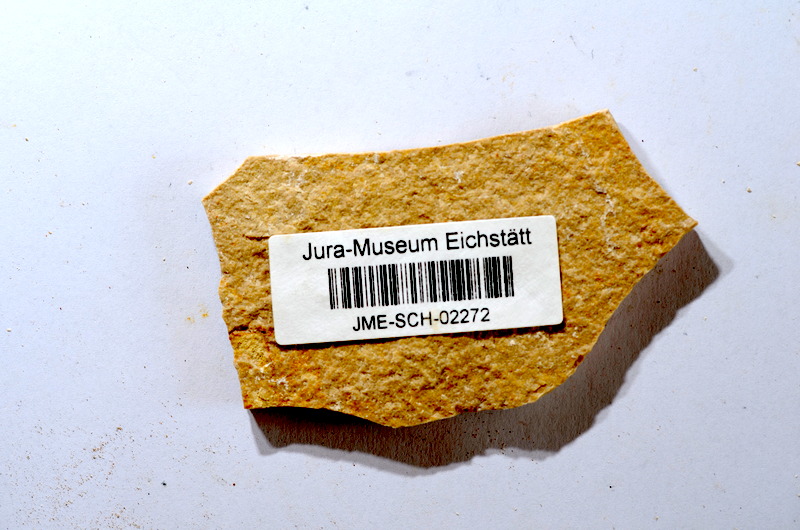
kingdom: Animalia
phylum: Chordata
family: Ascalaboidae
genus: Tharsis
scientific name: Tharsis dubius
